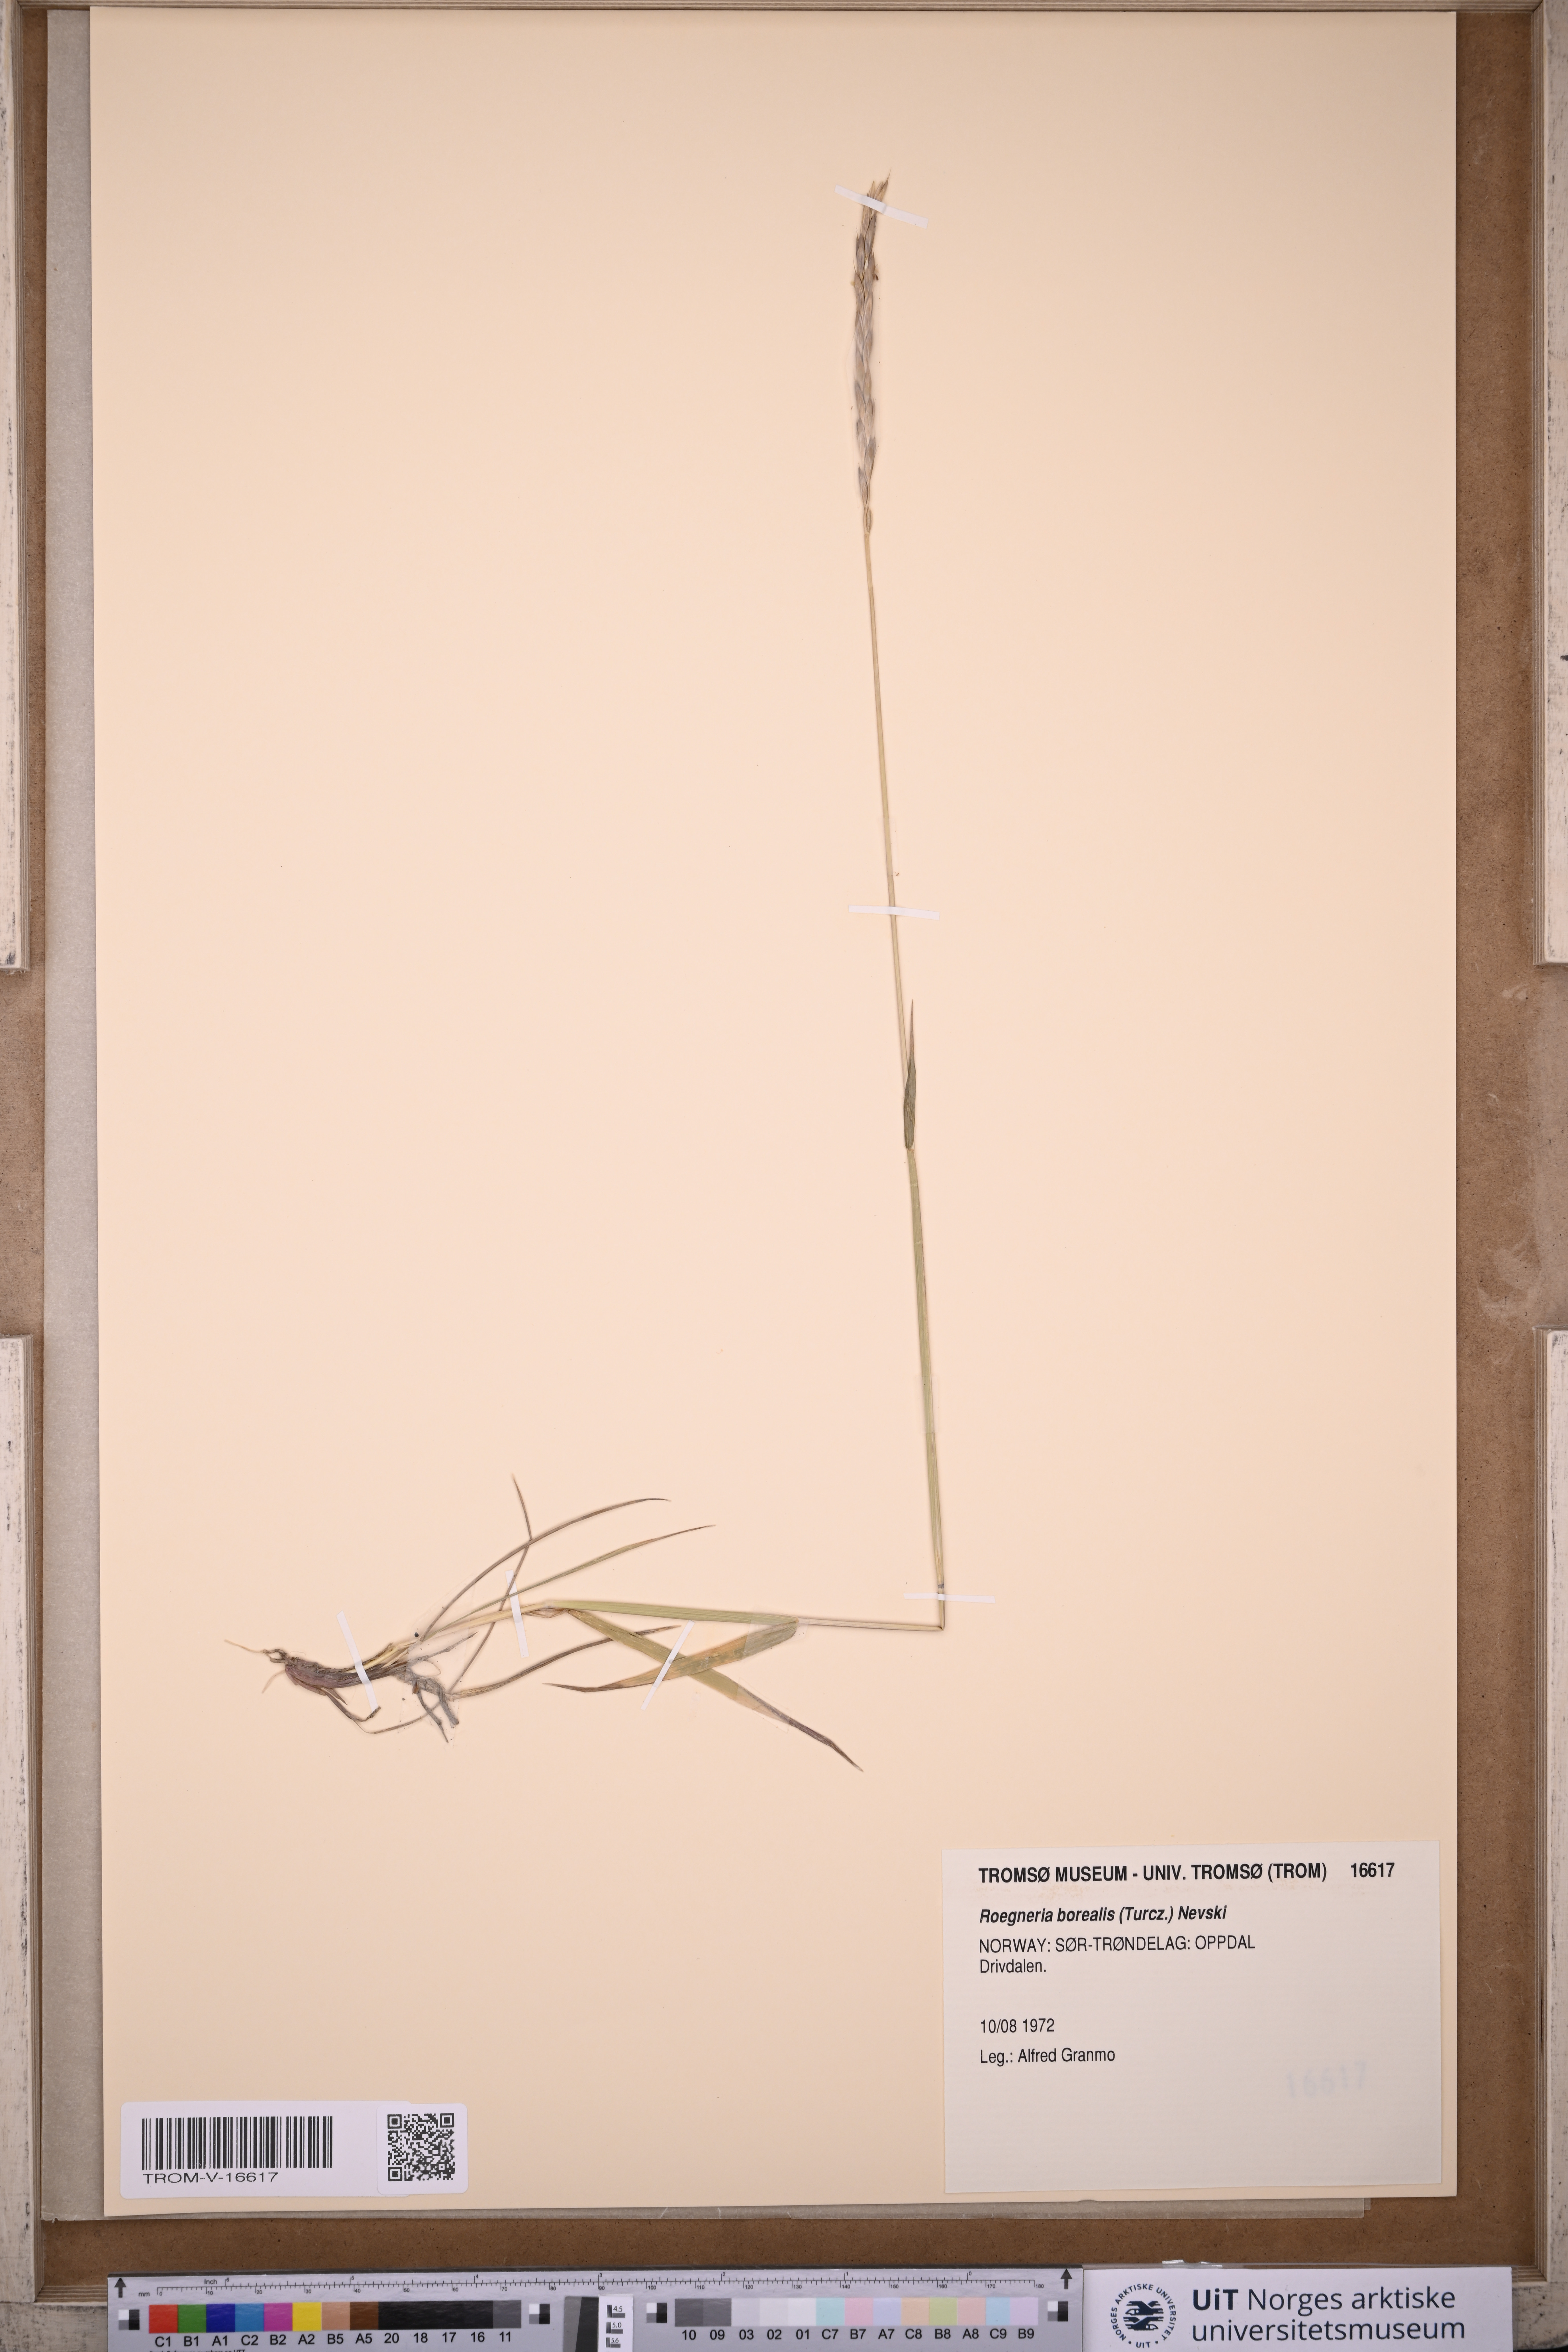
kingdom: Plantae
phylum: Tracheophyta
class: Liliopsida
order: Poales
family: Poaceae
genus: Elymus
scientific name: Elymus macrourus
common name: Northern wheatgrass
